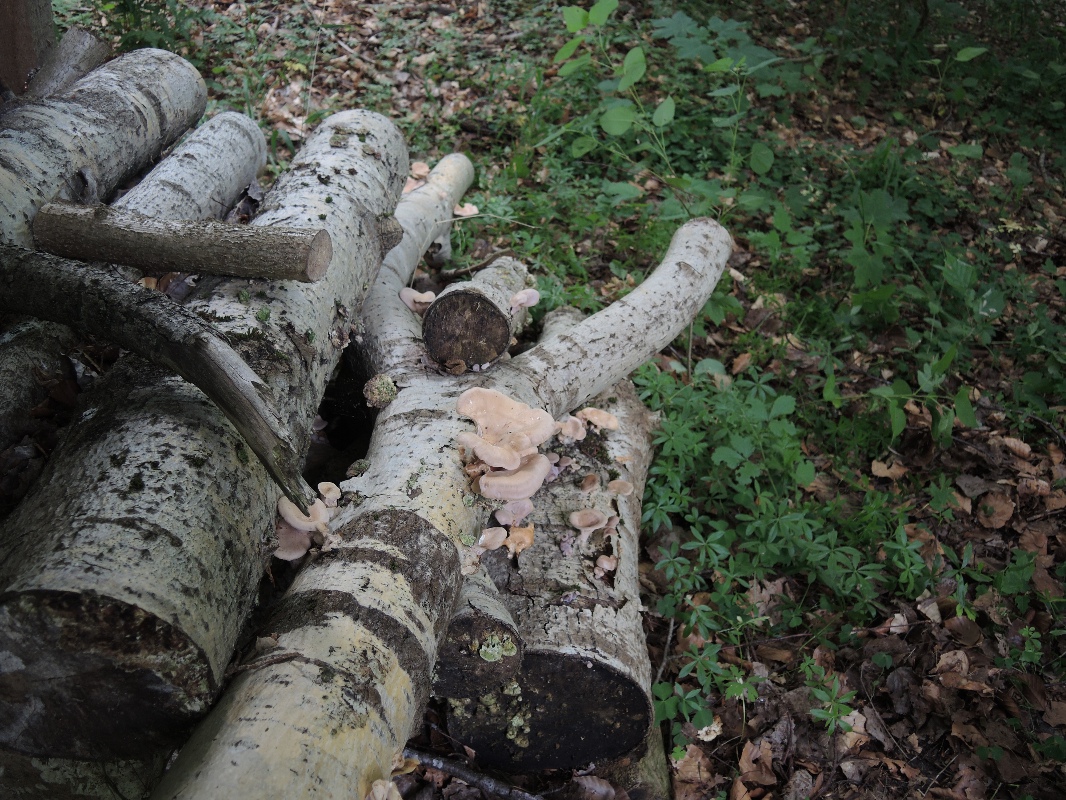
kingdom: Fungi
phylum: Basidiomycota
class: Agaricomycetes
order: Polyporales
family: Panaceae
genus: Panus
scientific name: Panus conchatus
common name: filtstokket læderhat
